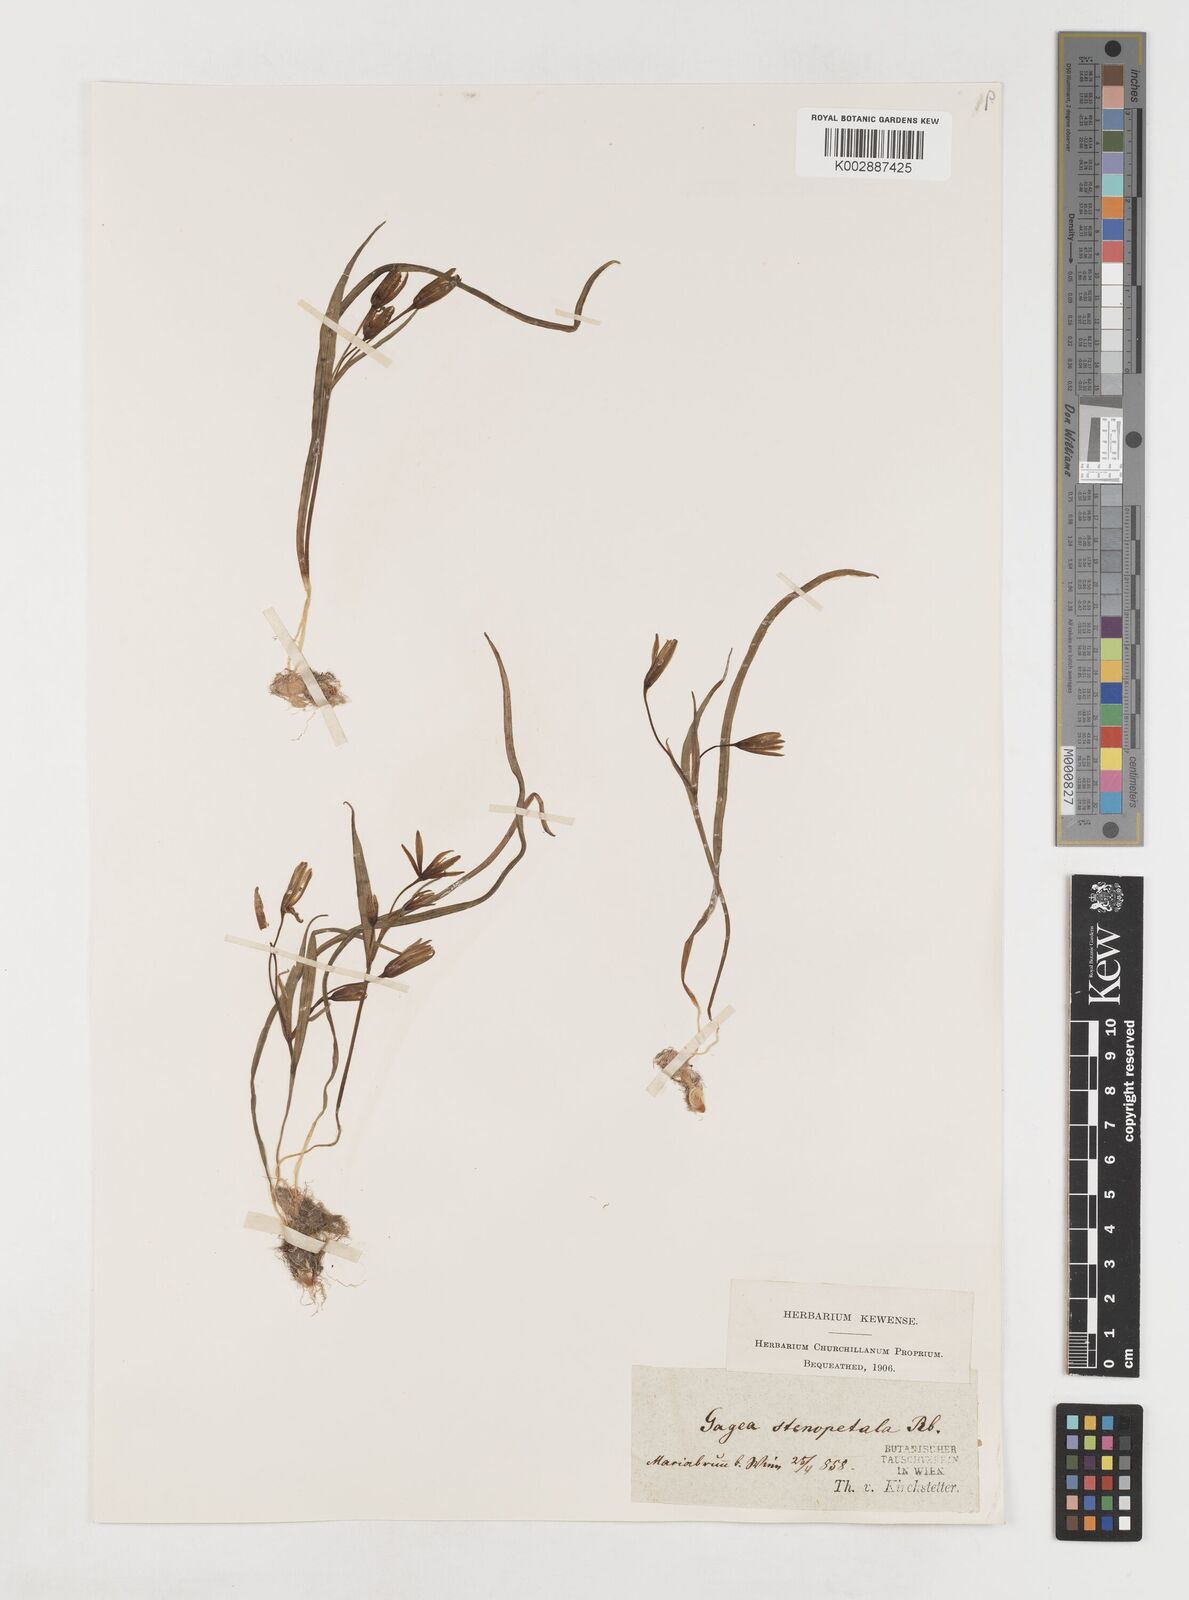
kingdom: Plantae
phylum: Tracheophyta
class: Liliopsida
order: Liliales
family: Liliaceae
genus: Gagea
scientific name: Gagea pratensis
